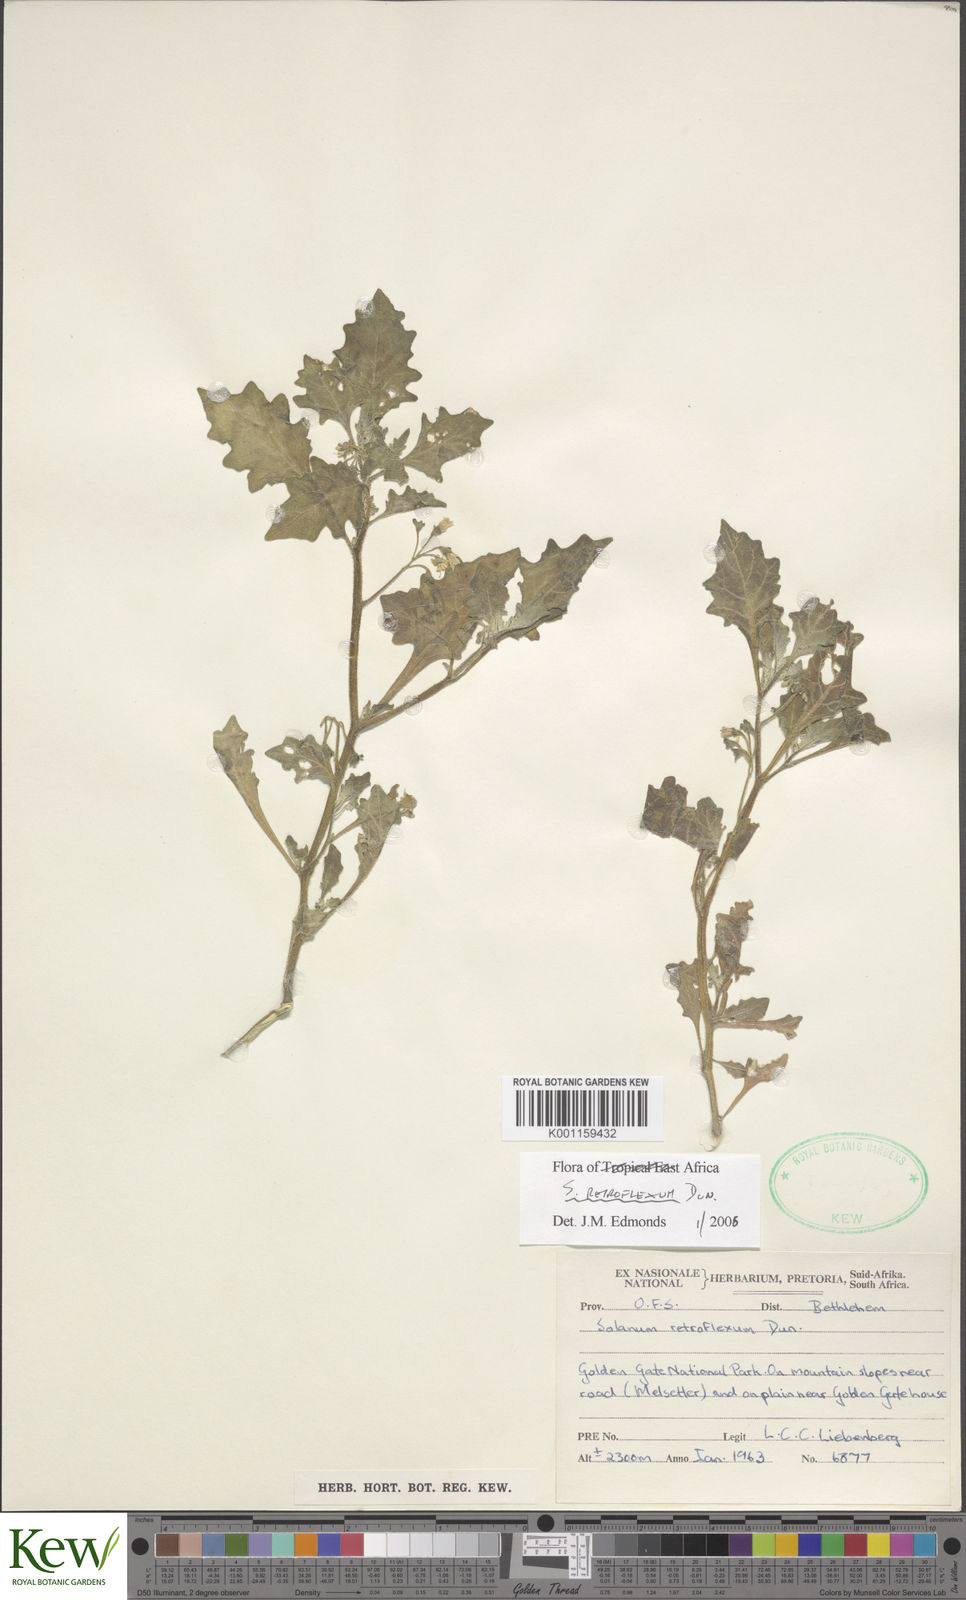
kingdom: Plantae
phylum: Tracheophyta
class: Magnoliopsida
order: Solanales
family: Solanaceae
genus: Solanum
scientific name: Solanum retroflexum
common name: Wonderberry
